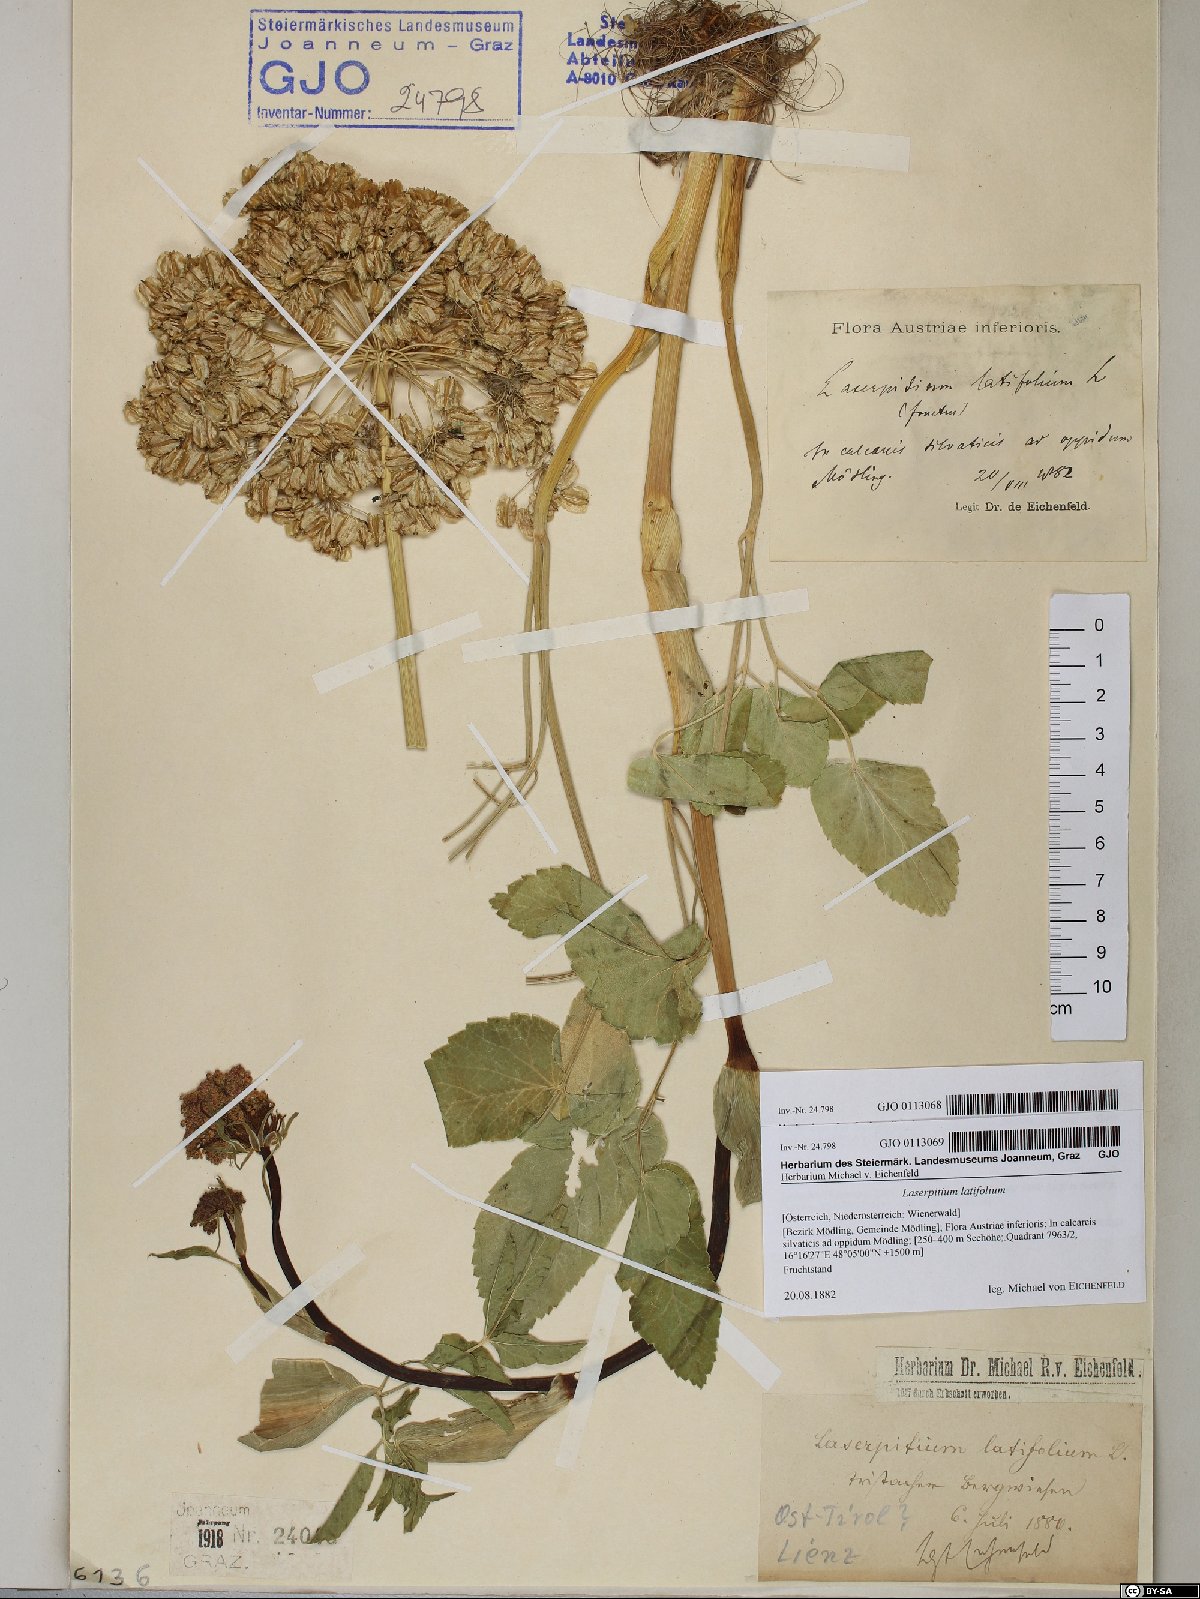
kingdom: Plantae
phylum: Tracheophyta
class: Magnoliopsida
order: Apiales
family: Apiaceae
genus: Laserpitium
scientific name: Laserpitium latifolium
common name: Broadleaf sermountain
